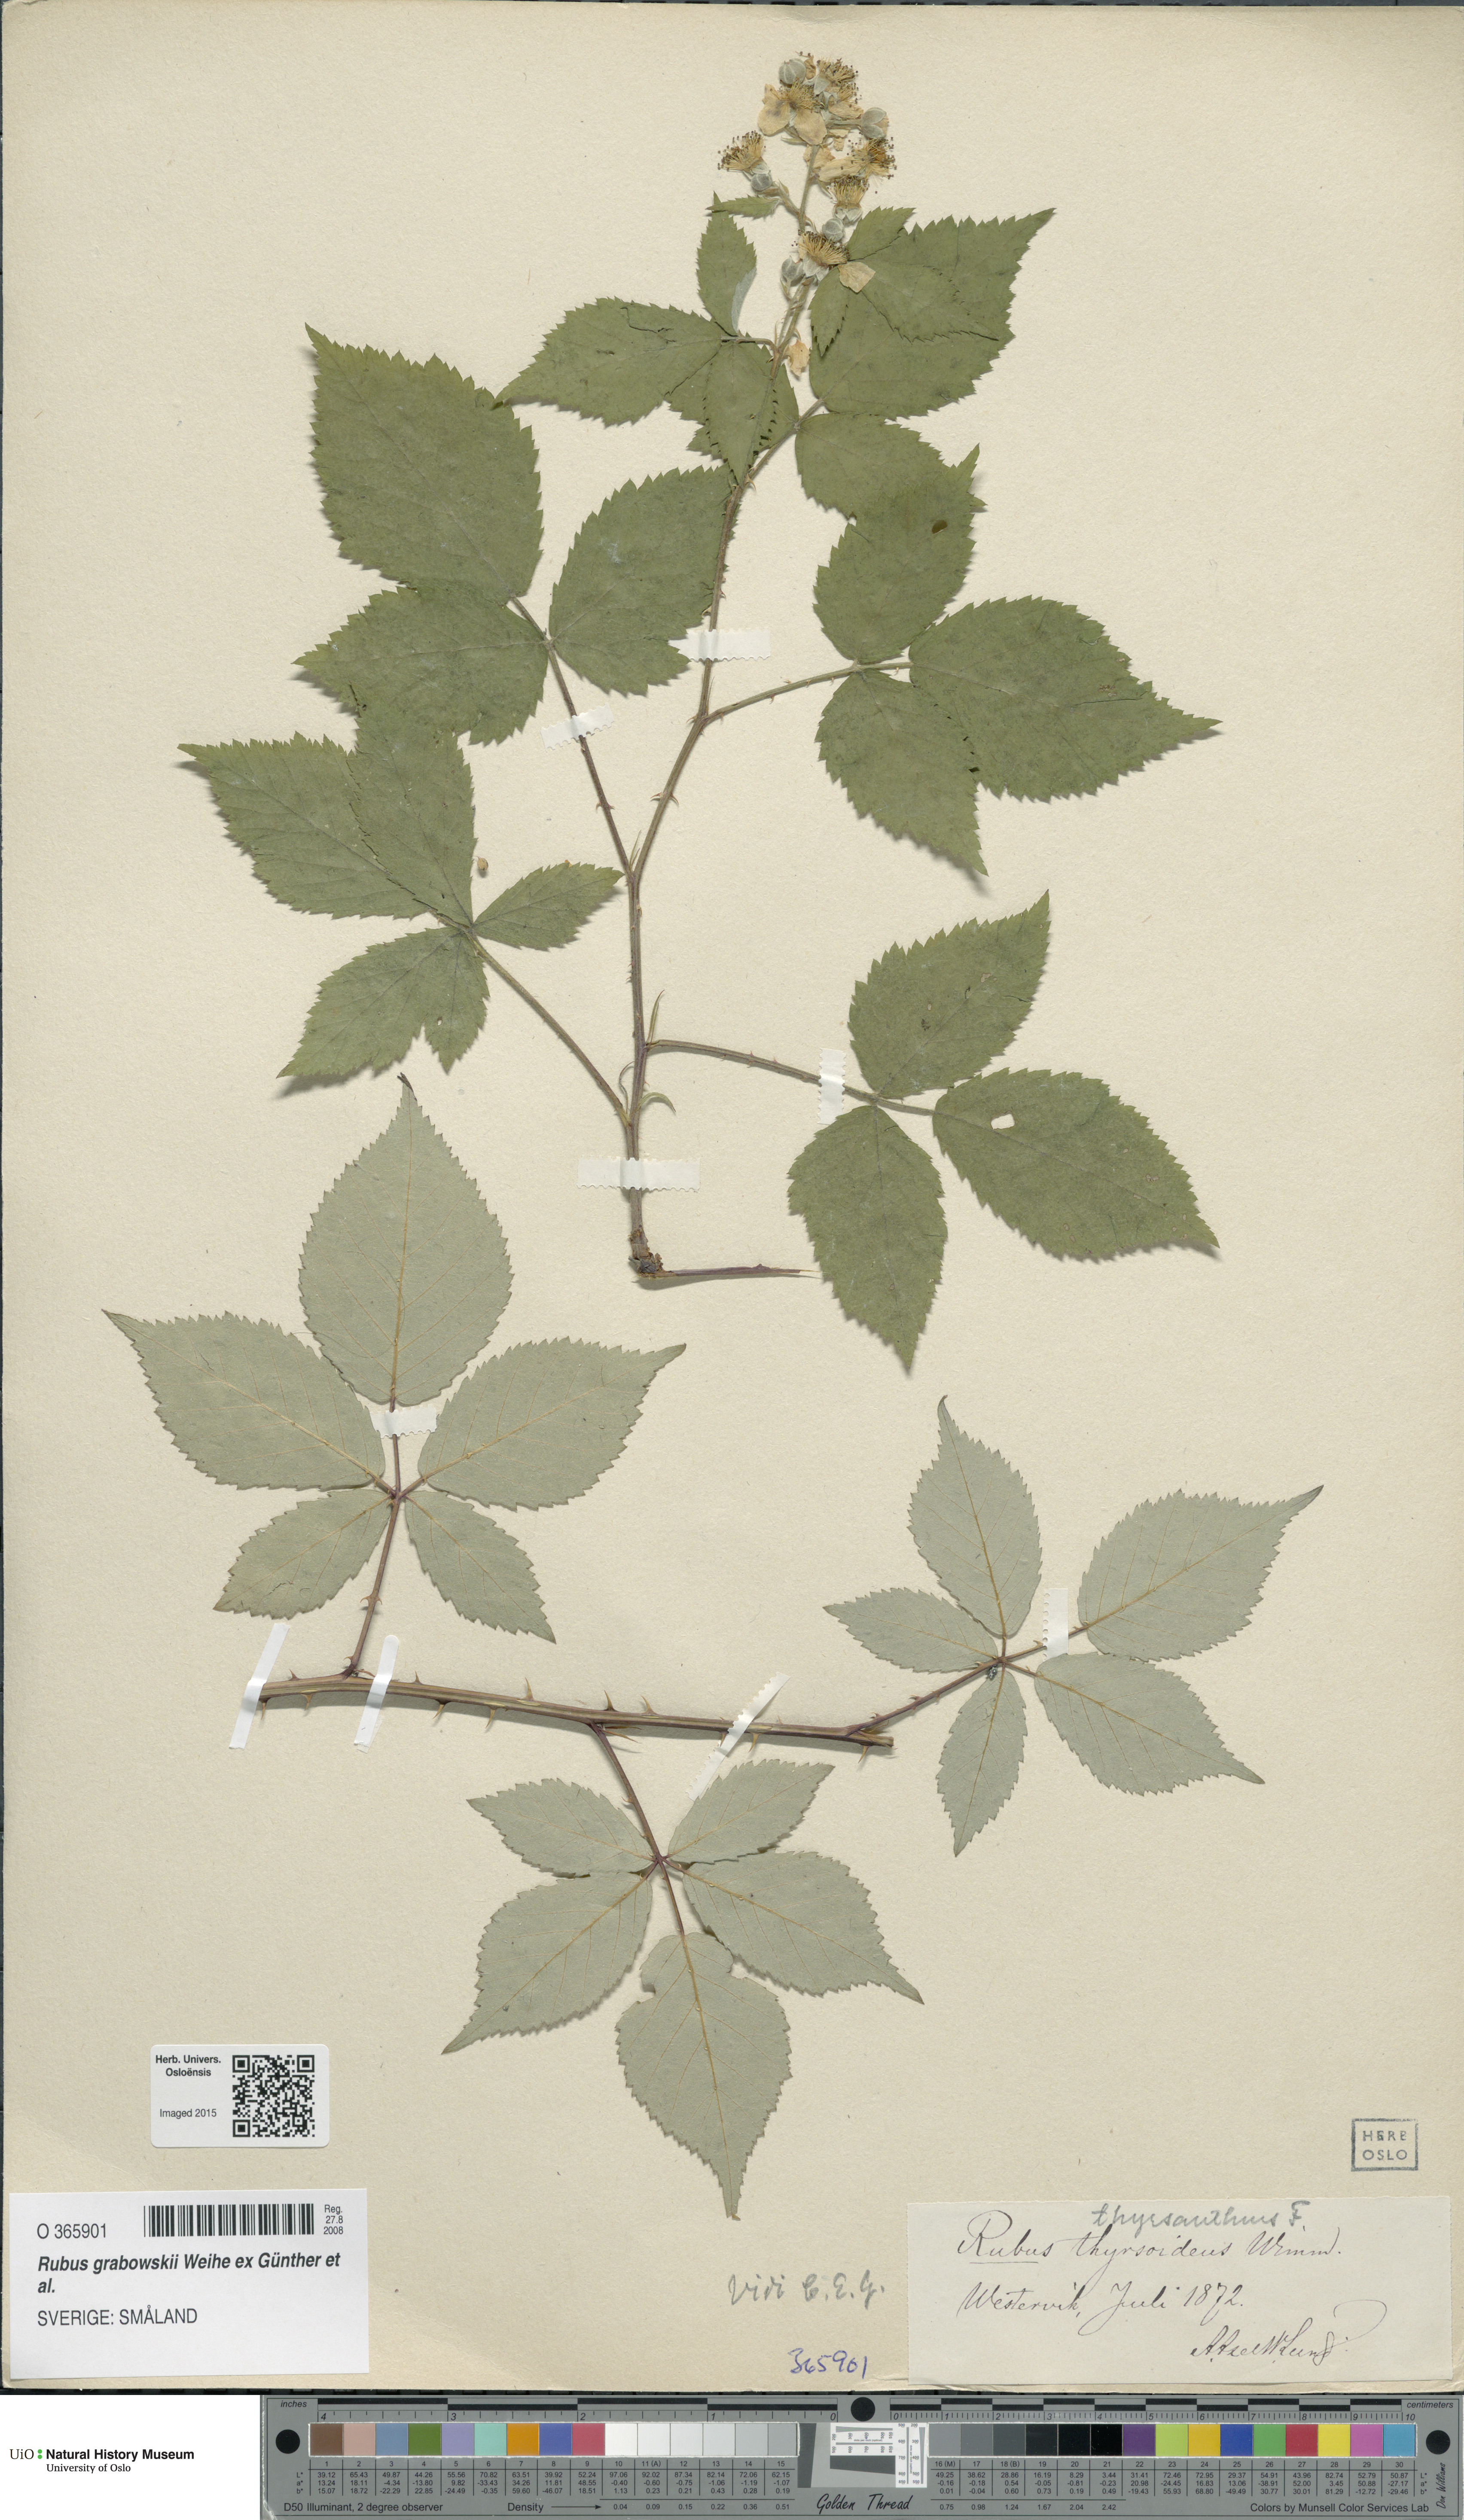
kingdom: Plantae
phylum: Tracheophyta
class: Magnoliopsida
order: Rosales
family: Rosaceae
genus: Rubus
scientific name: Rubus grabowskii
